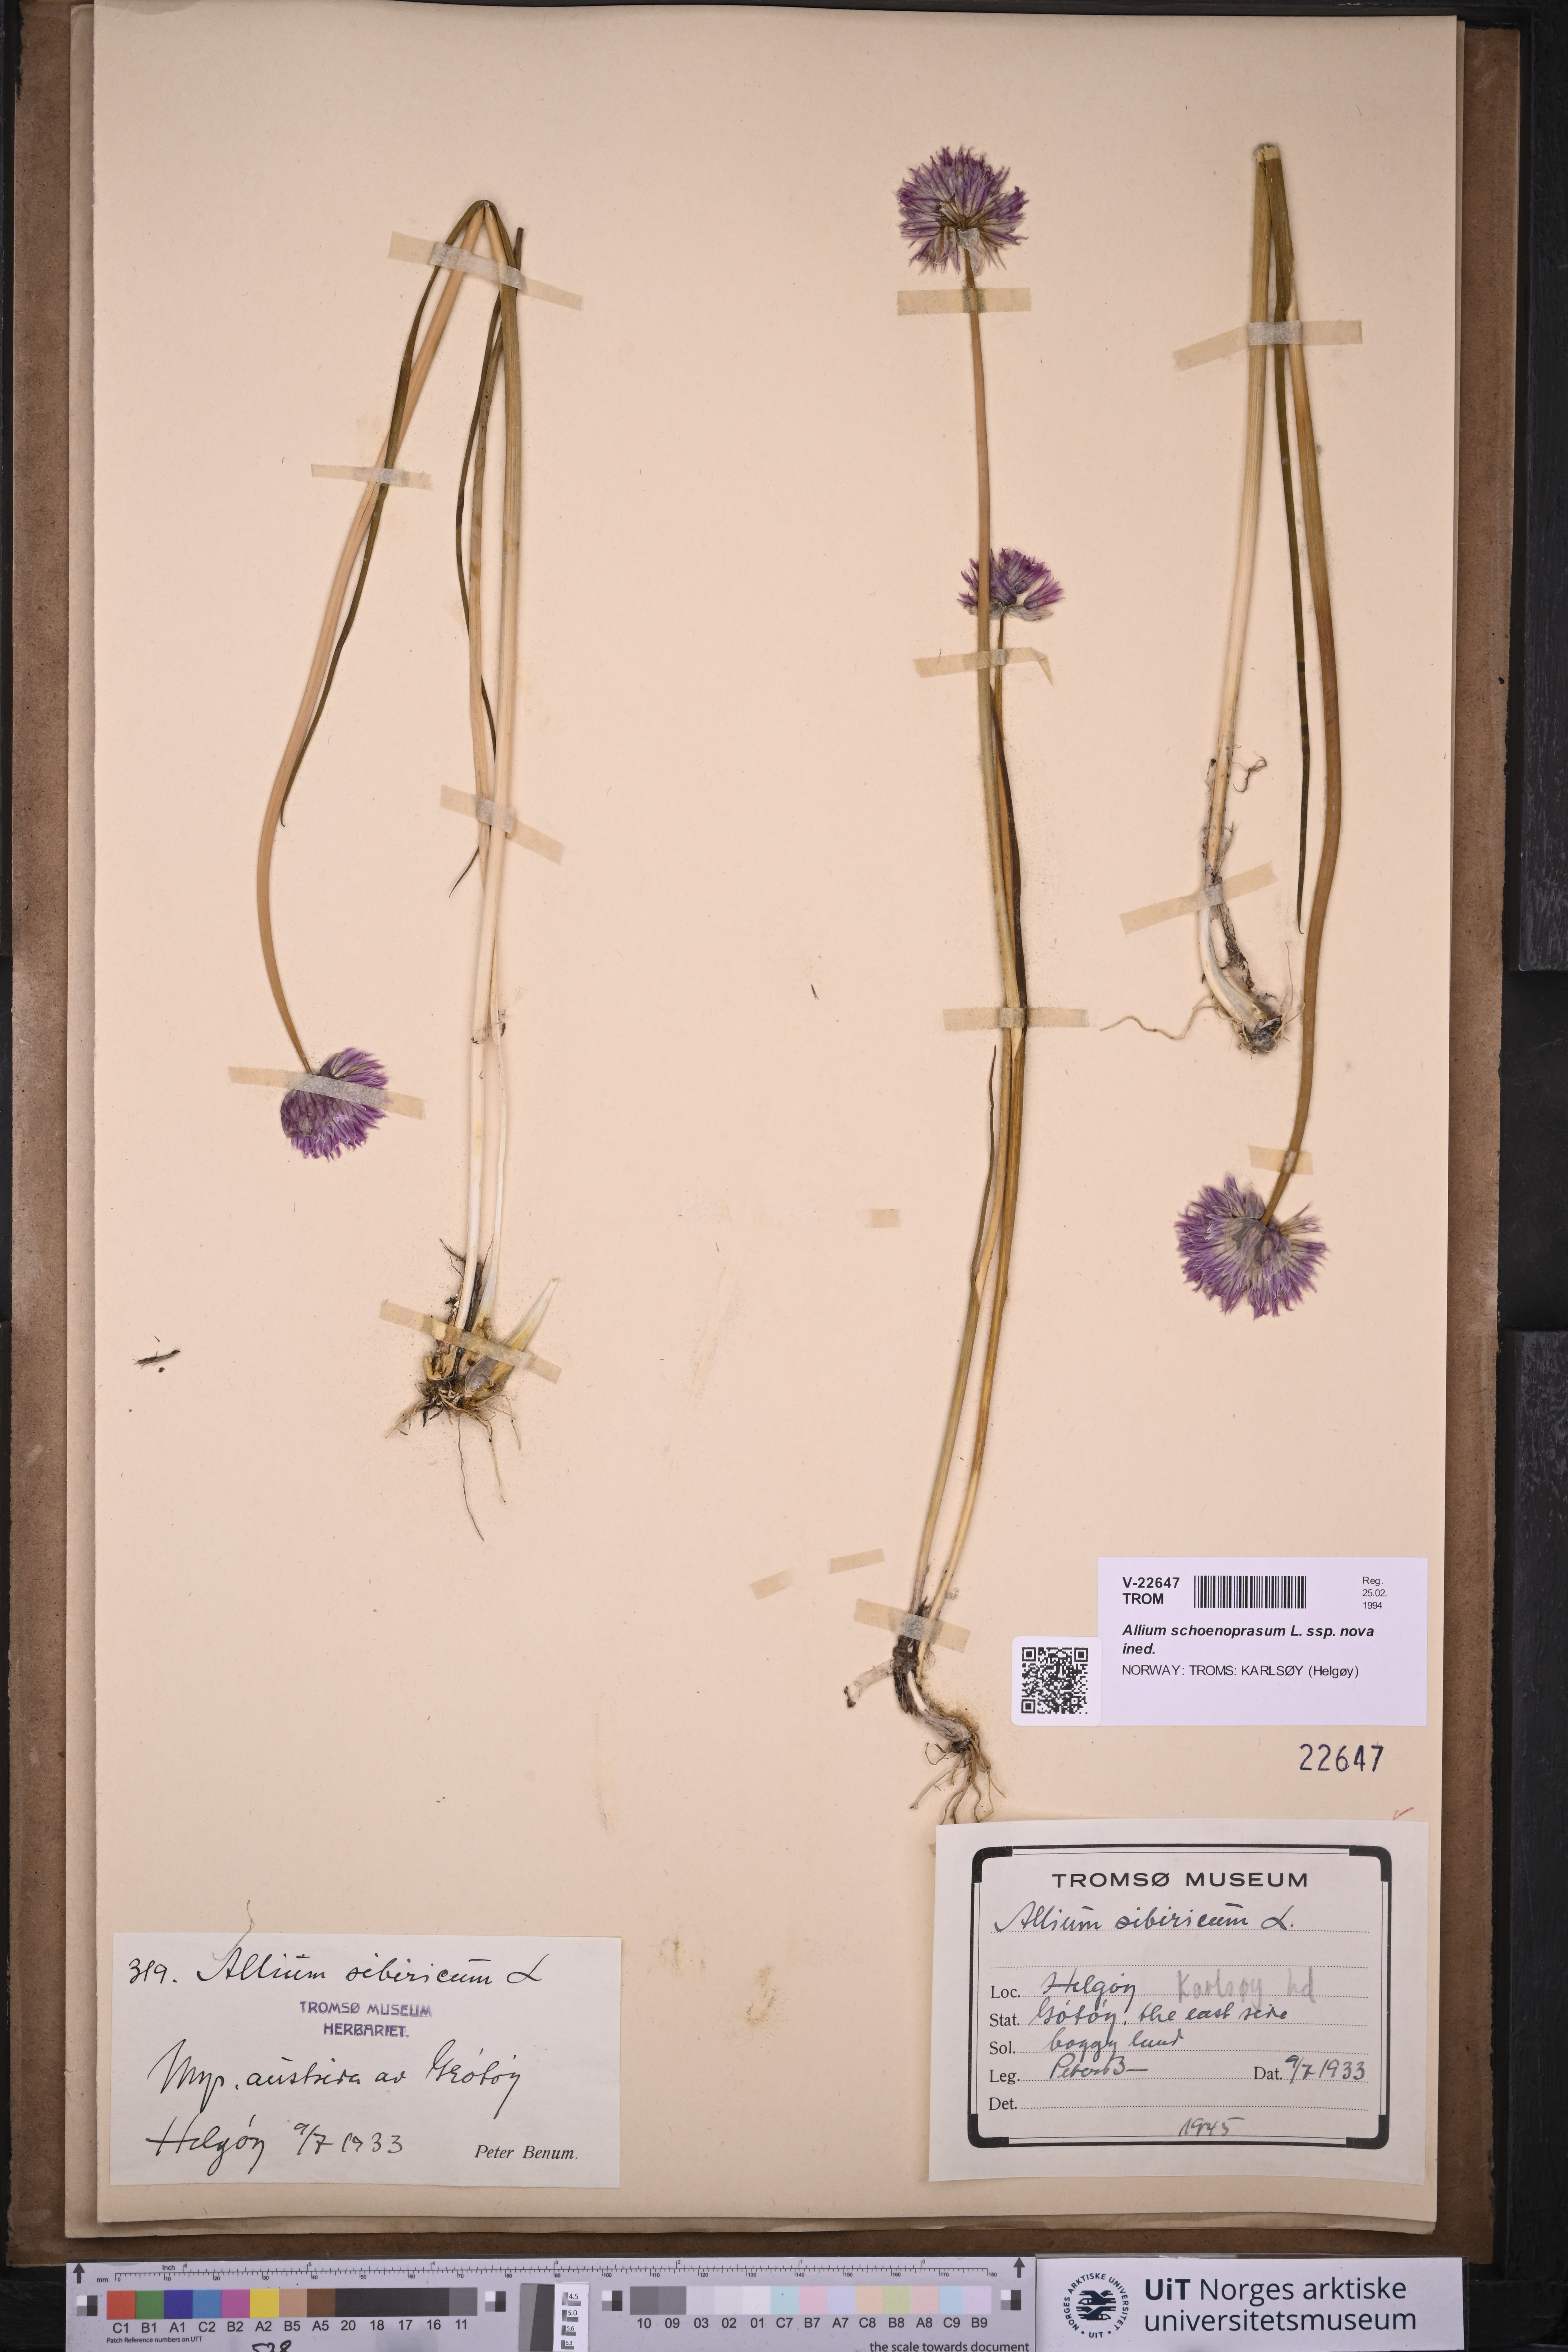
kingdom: Plantae
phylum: Tracheophyta
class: Liliopsida
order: Asparagales
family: Amaryllidaceae
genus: Allium
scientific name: Allium schoenoprasum
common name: Chives
